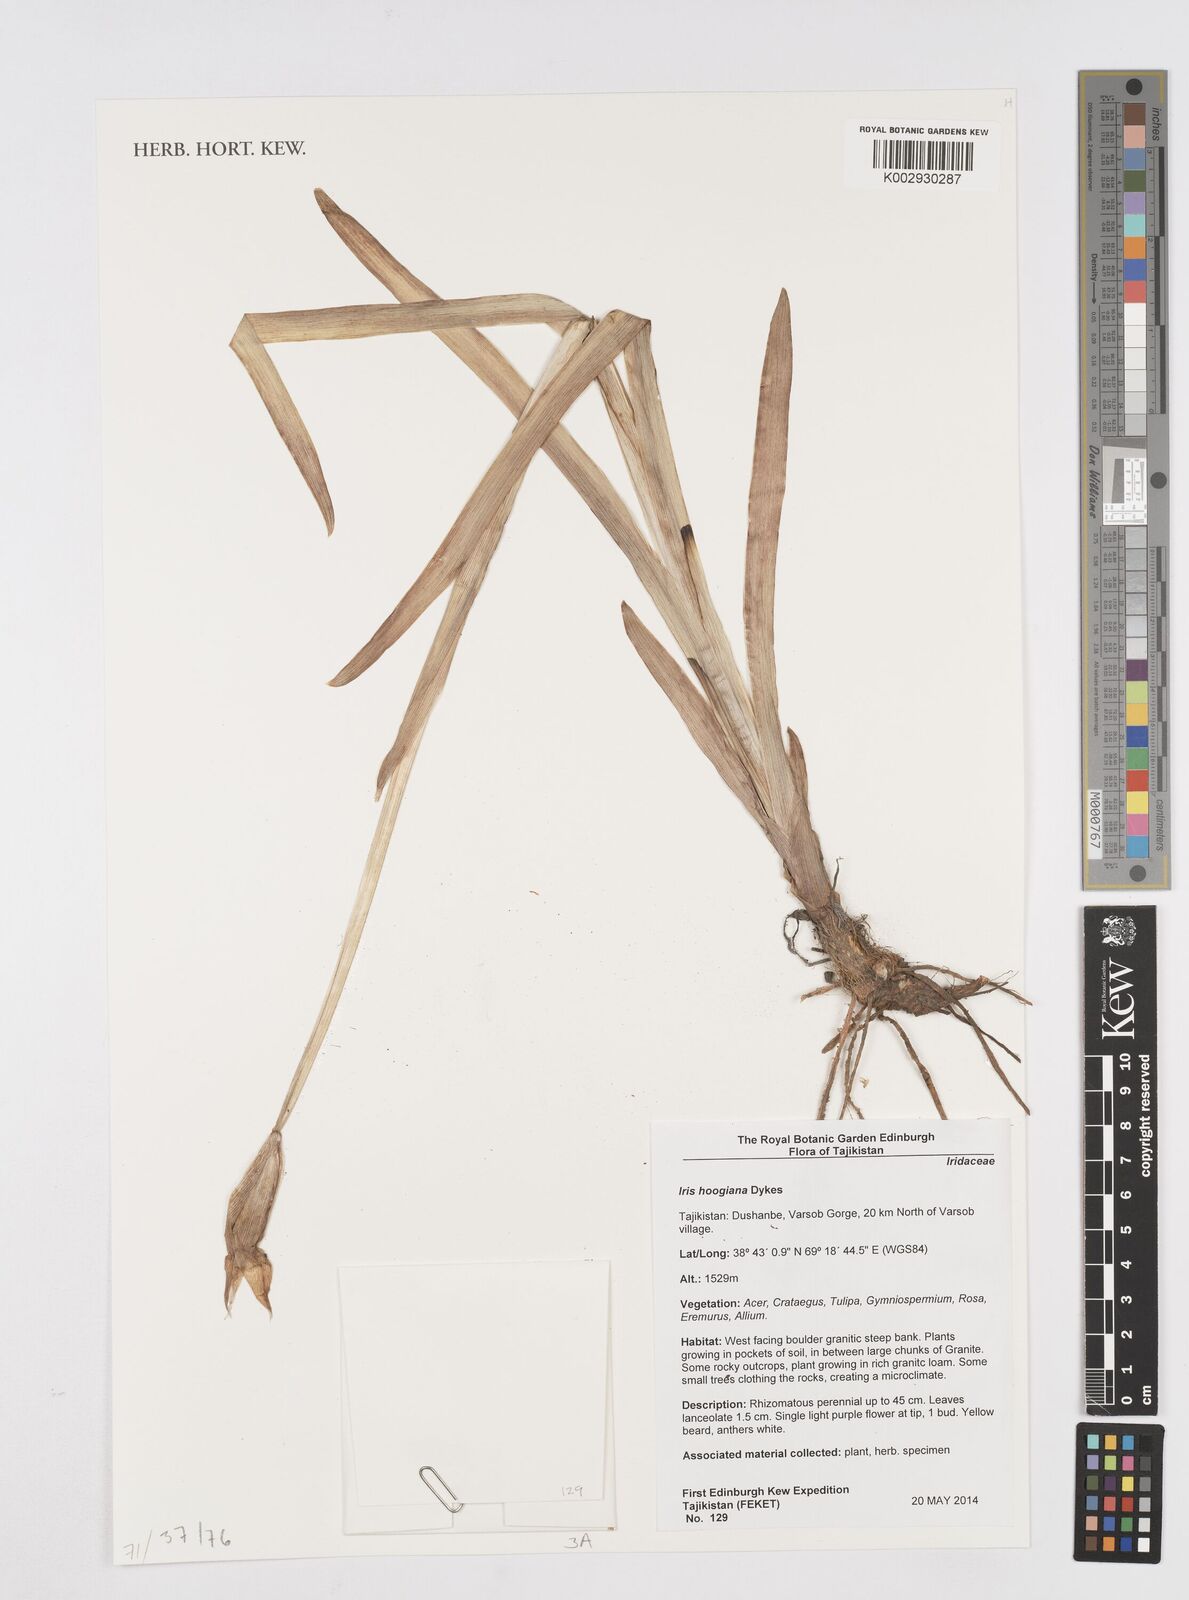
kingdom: Plantae
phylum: Tracheophyta
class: Liliopsida
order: Asparagales
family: Iridaceae
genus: Iris
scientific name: Iris hoogiana
